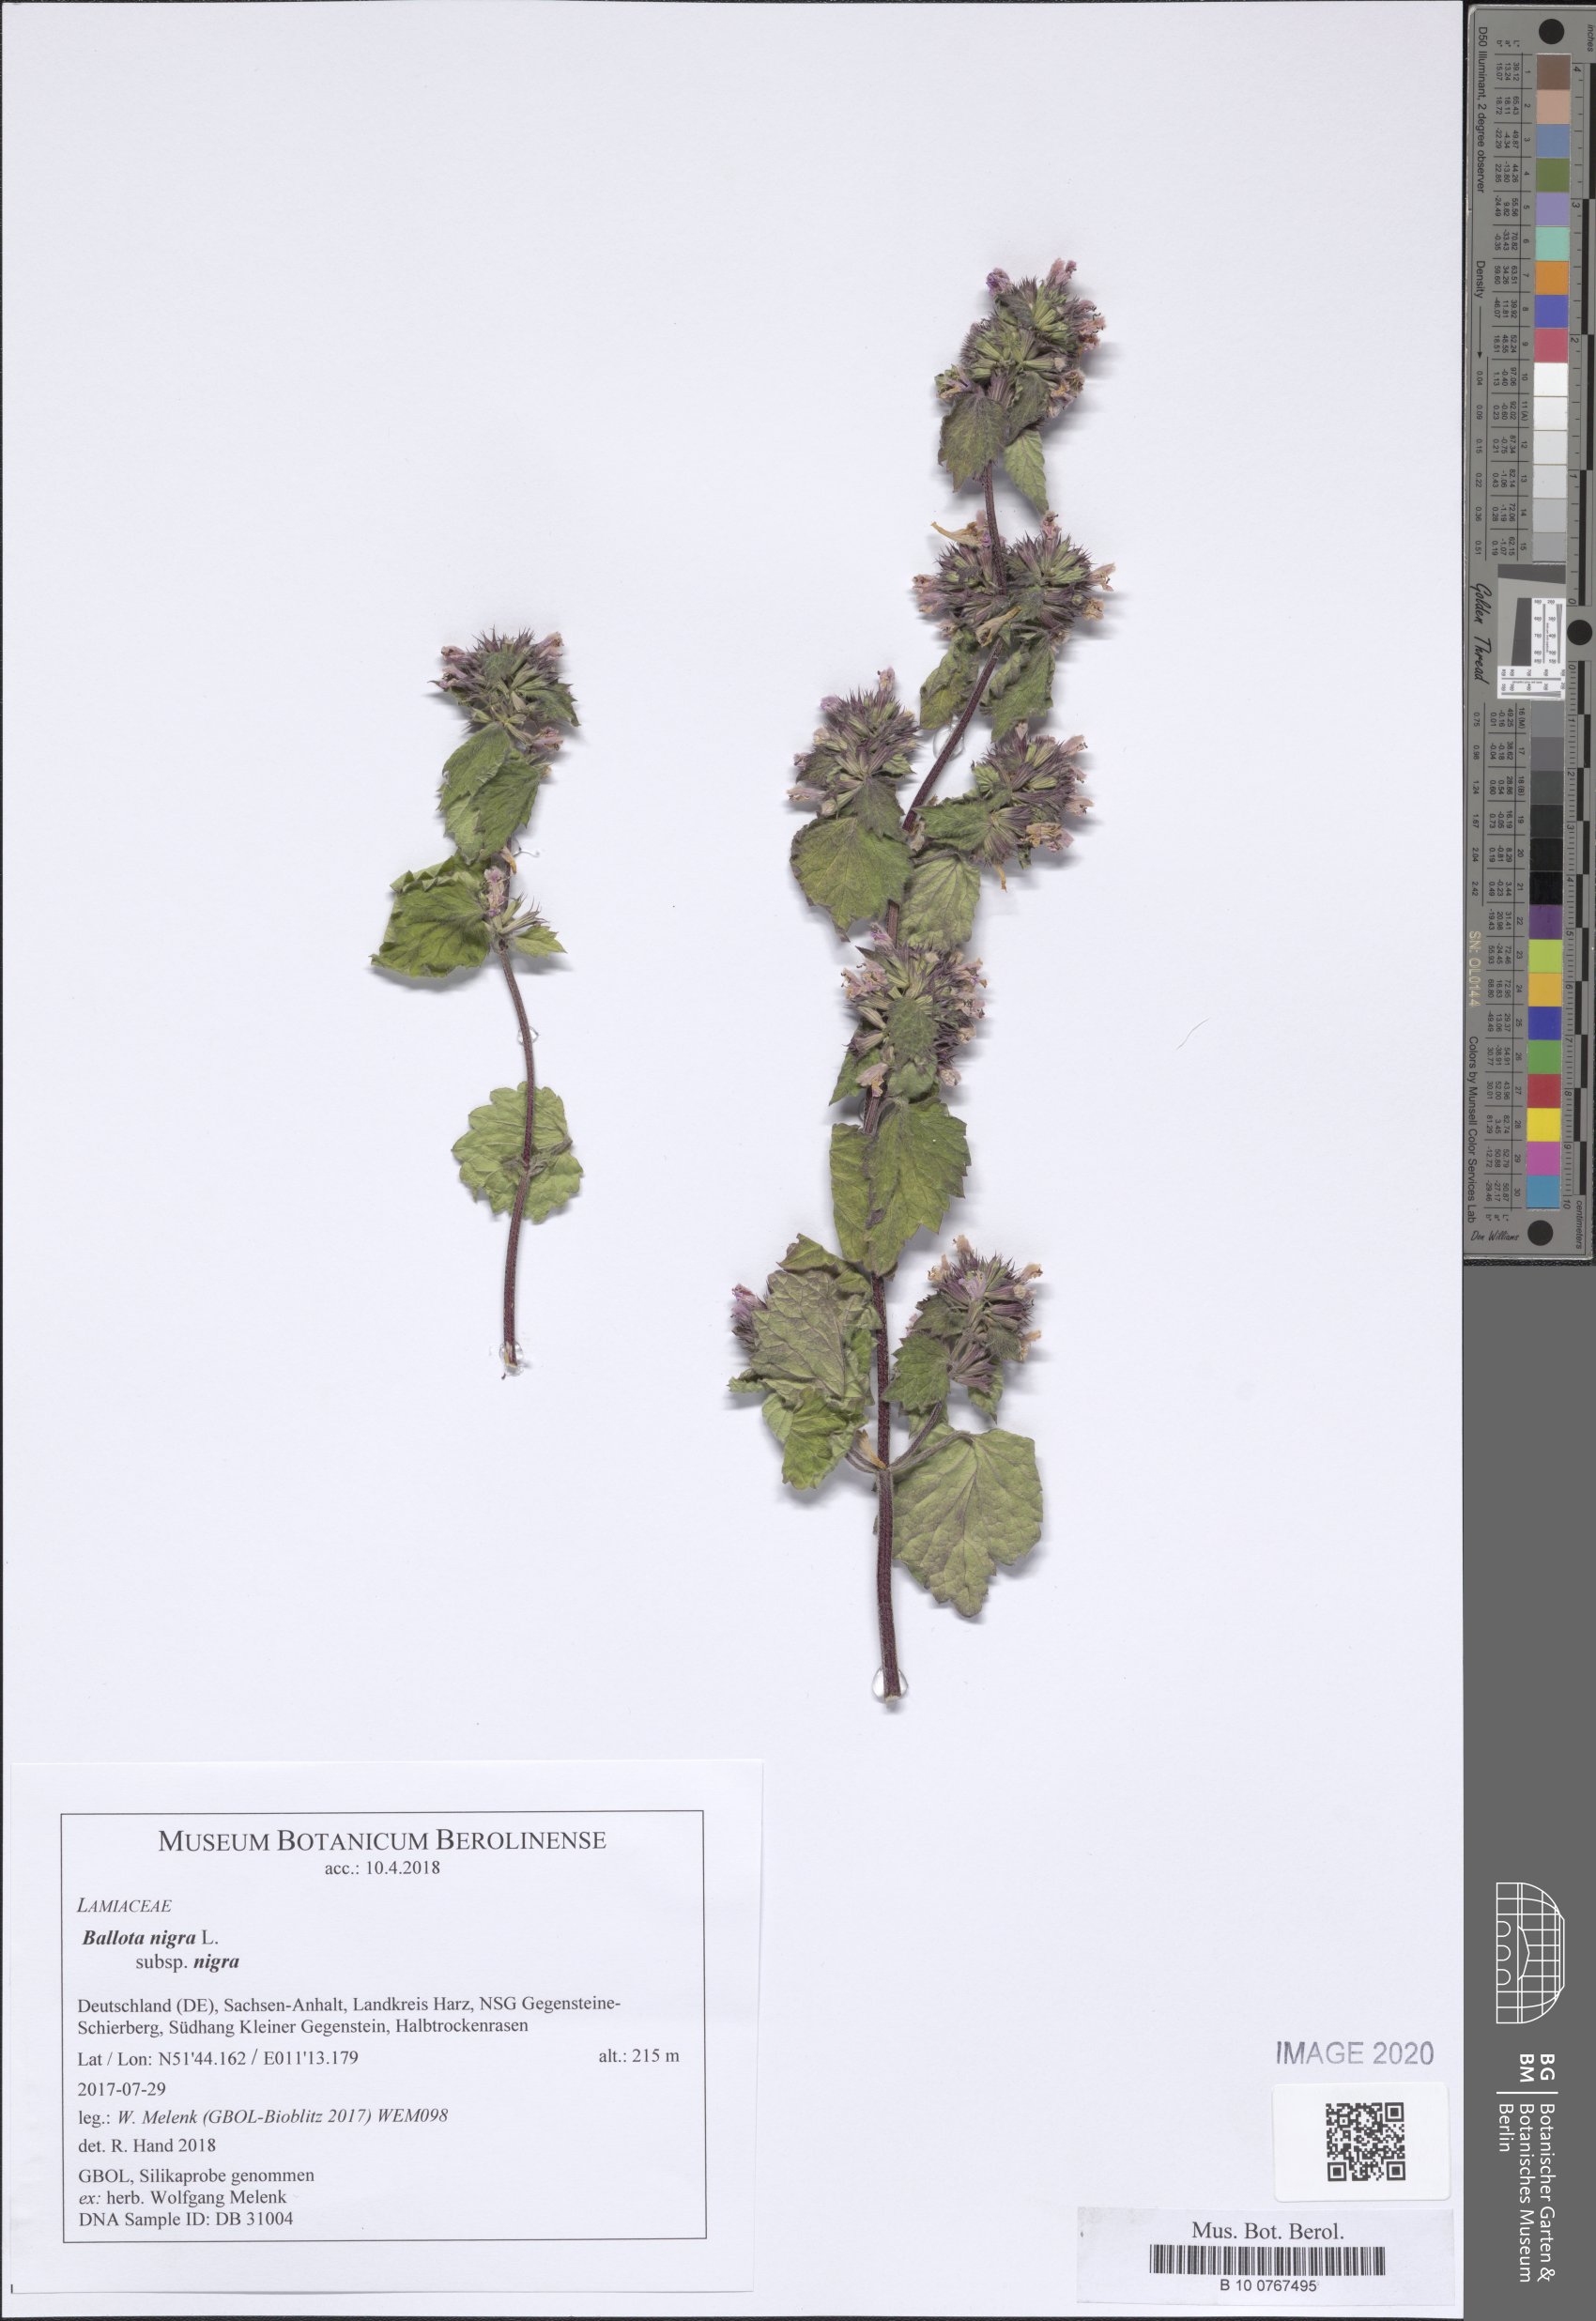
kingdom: Plantae
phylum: Tracheophyta
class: Magnoliopsida
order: Lamiales
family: Lamiaceae
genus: Ballota
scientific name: Ballota nigra
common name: Black horehound
